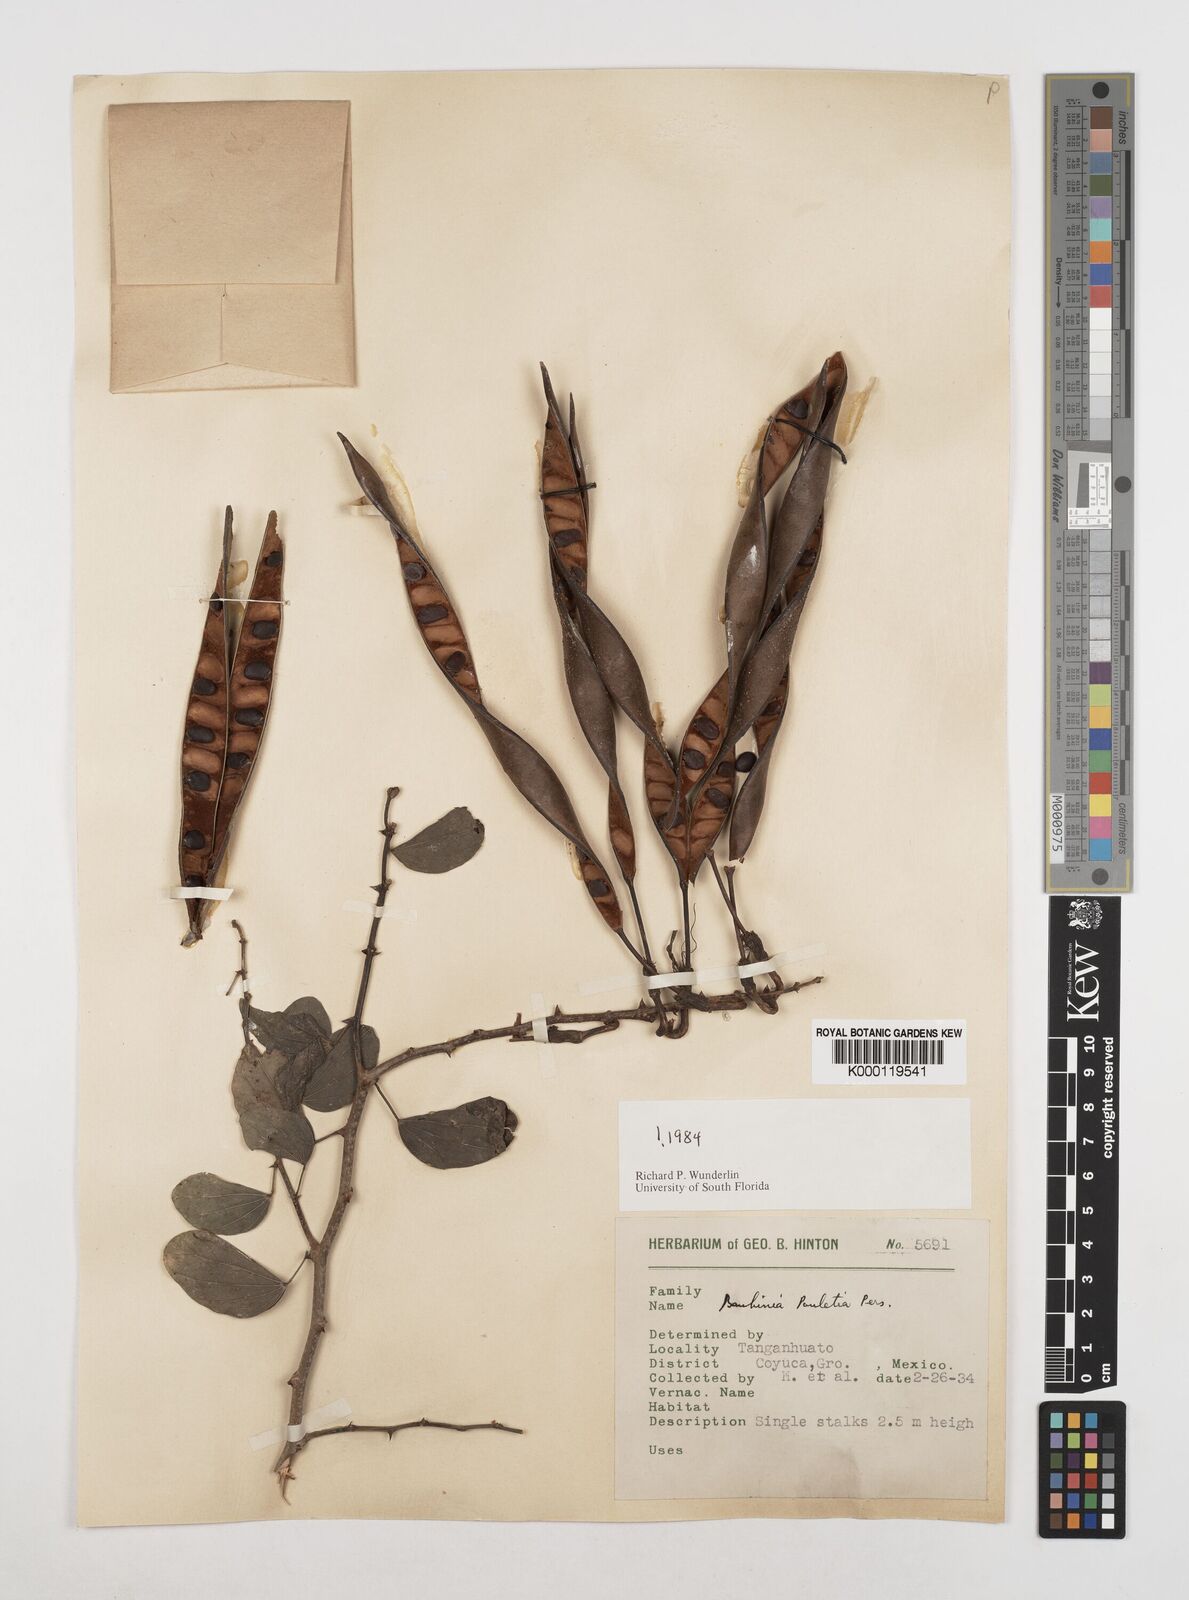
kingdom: Plantae
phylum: Tracheophyta
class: Magnoliopsida
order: Fabales
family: Fabaceae
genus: Bauhinia
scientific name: Bauhinia pauletia
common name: Railway-fence bauhinia
